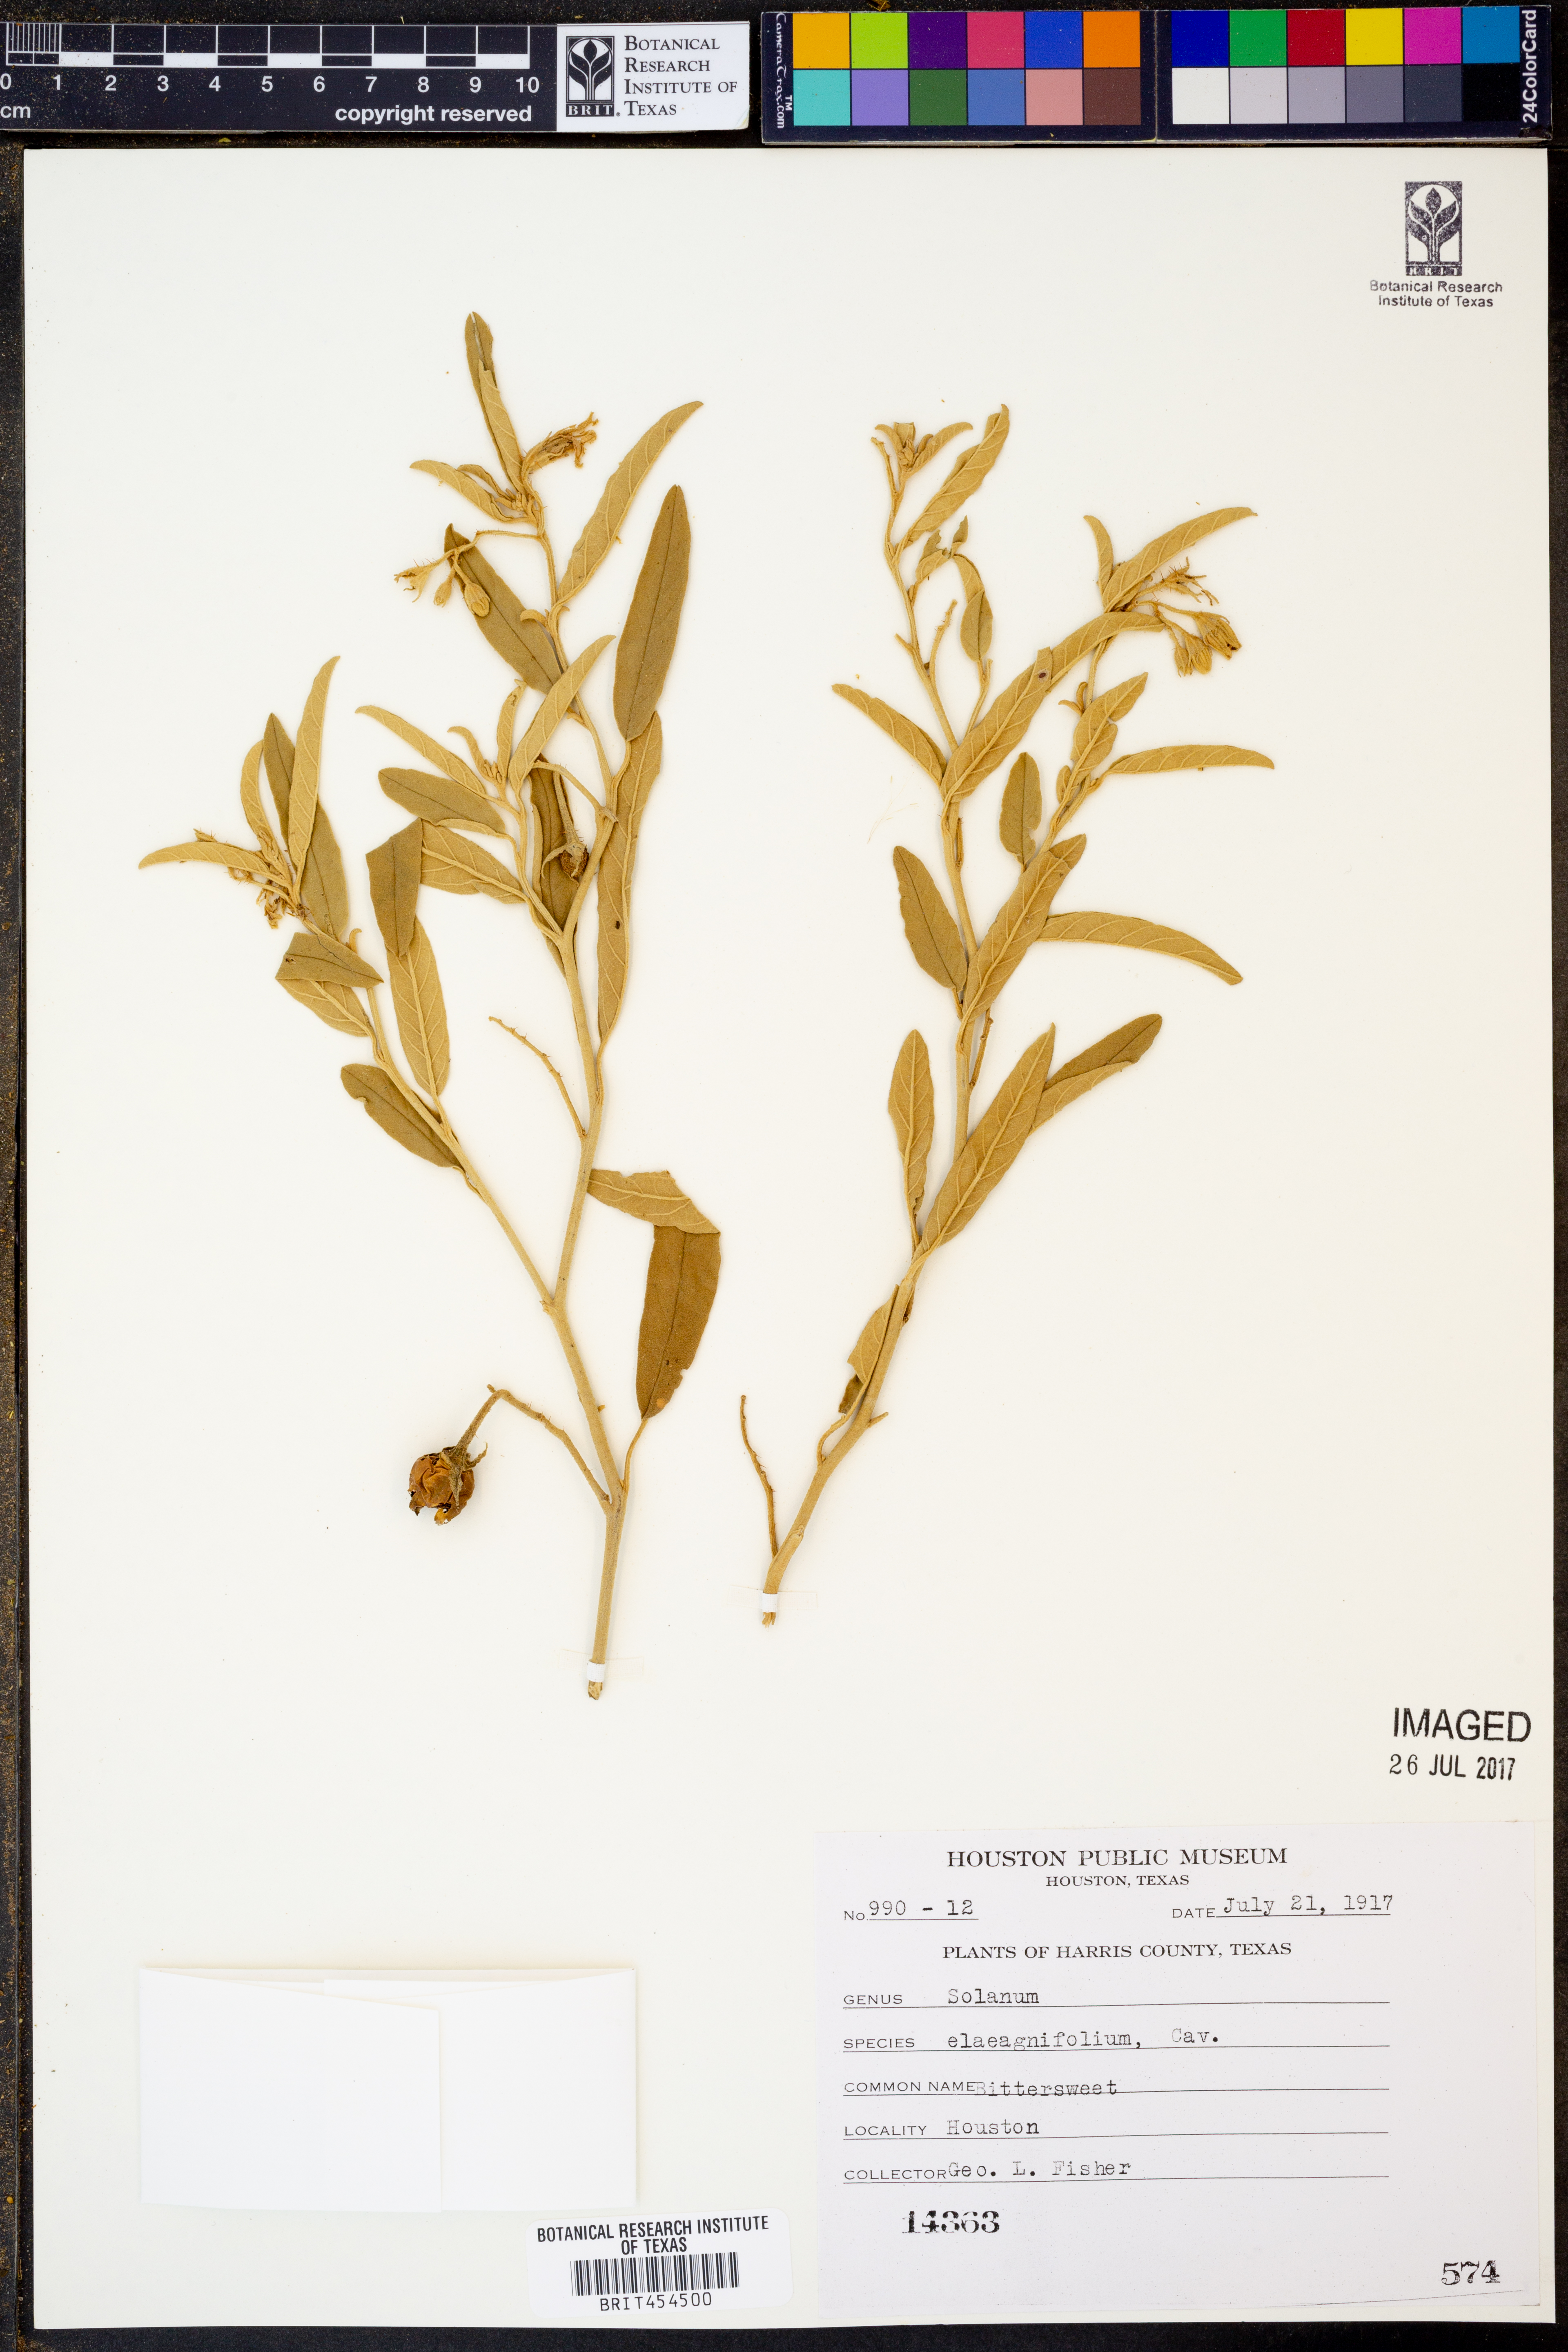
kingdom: Plantae
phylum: Tracheophyta
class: Magnoliopsida
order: Solanales
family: Solanaceae
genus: Solanum
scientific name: Solanum elaeagnifolium
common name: Silverleaf nightshade
